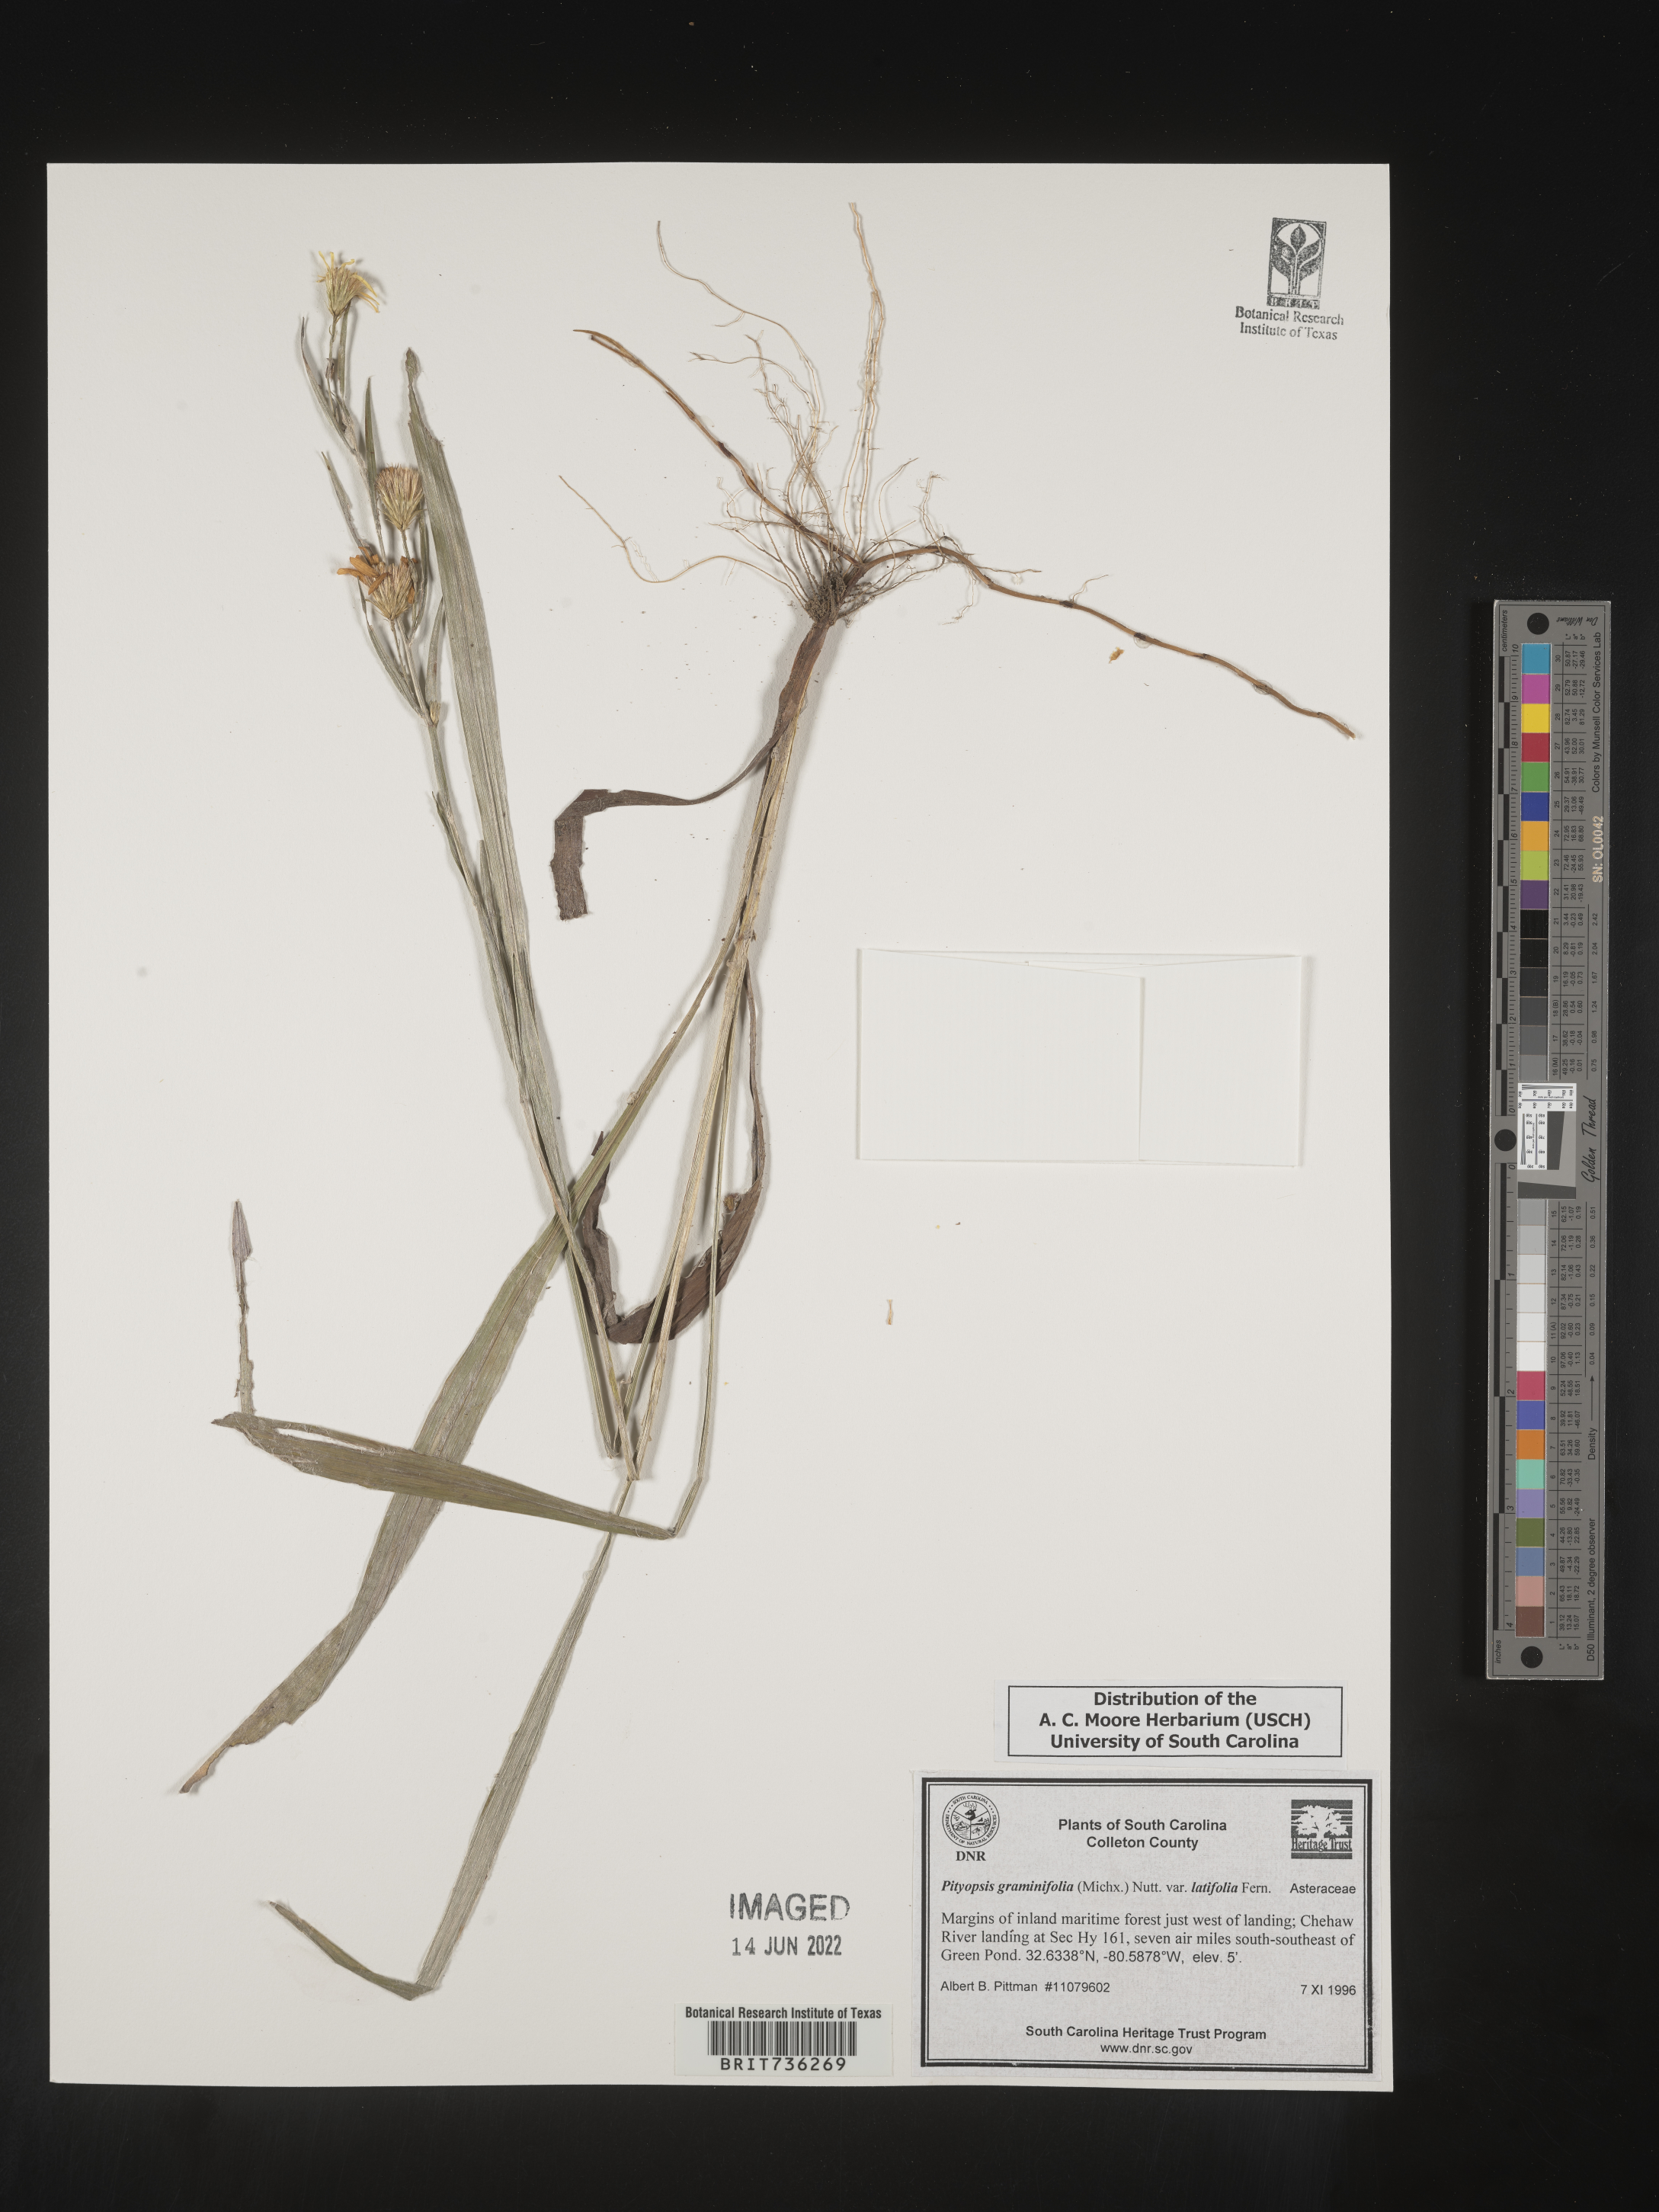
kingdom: Plantae
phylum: Tracheophyta
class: Magnoliopsida
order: Asterales
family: Asteraceae
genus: Pityopsis
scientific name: Pityopsis graminifolia
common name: Grass-leaf golden-aster
